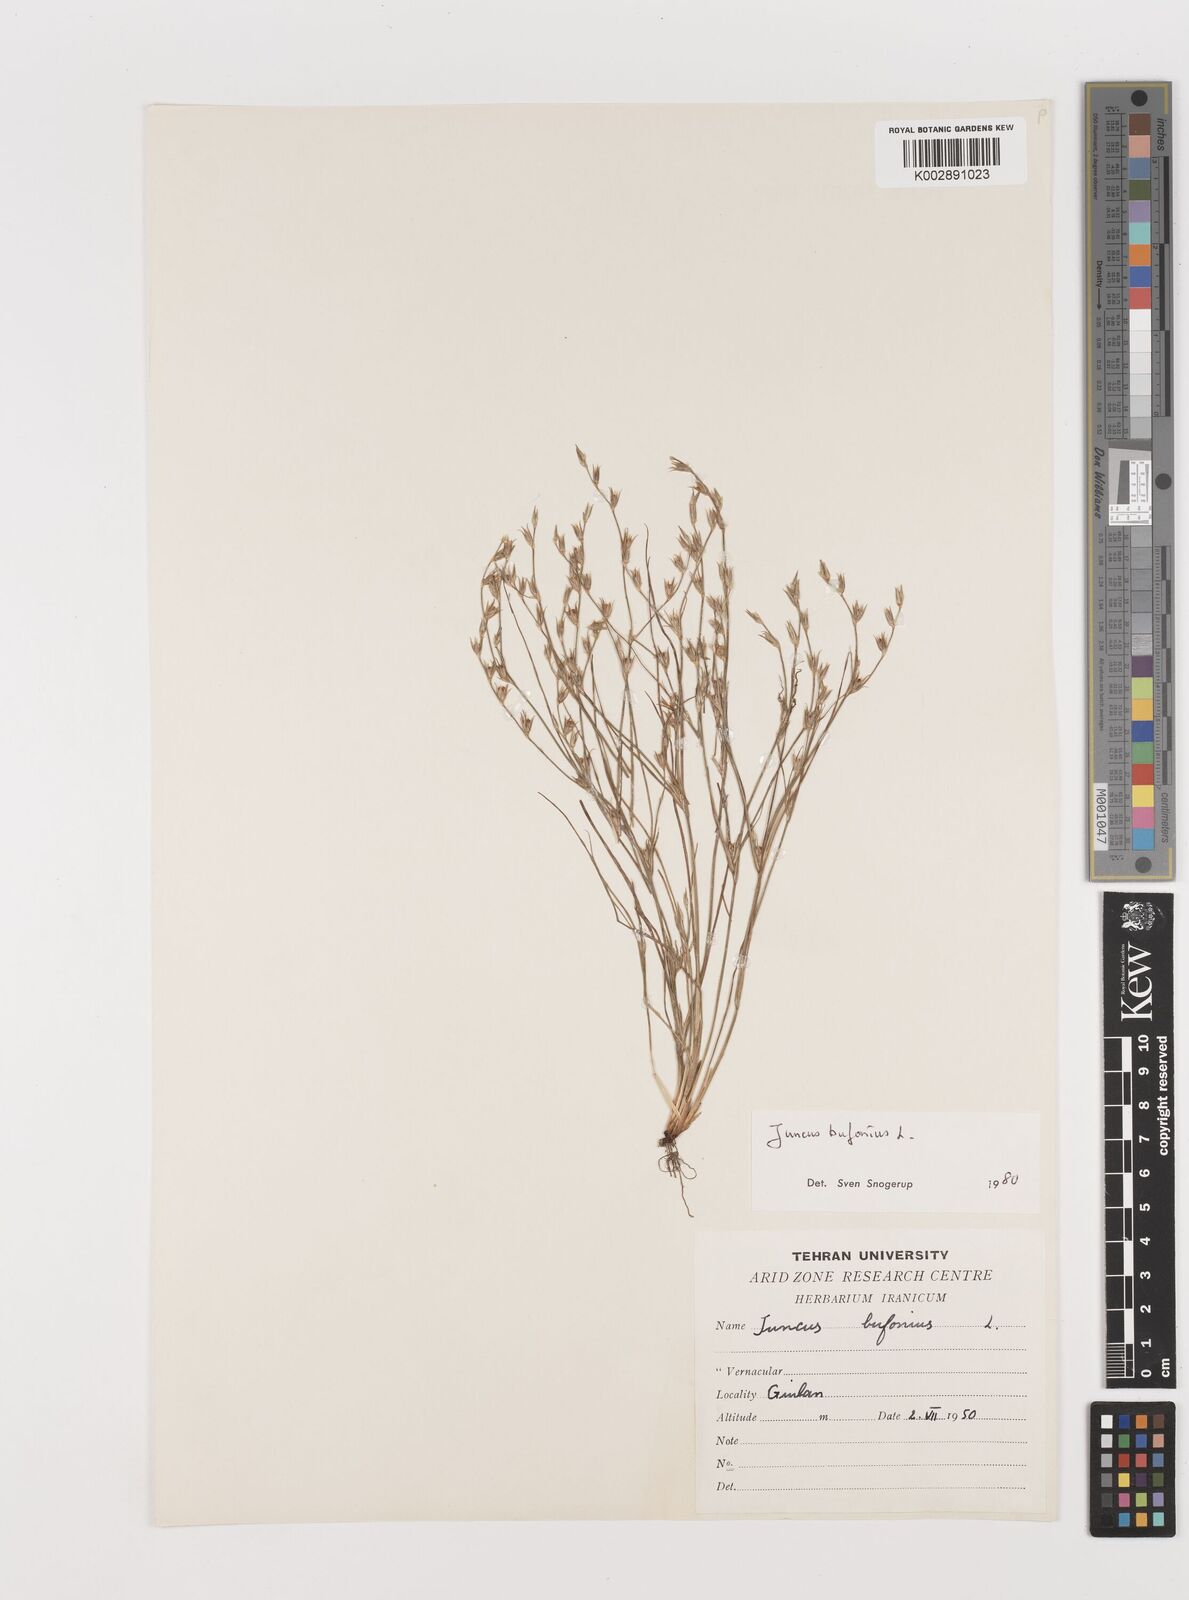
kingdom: Plantae
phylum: Tracheophyta
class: Liliopsida
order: Poales
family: Juncaceae
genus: Juncus
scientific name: Juncus bufonius
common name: Toad rush
